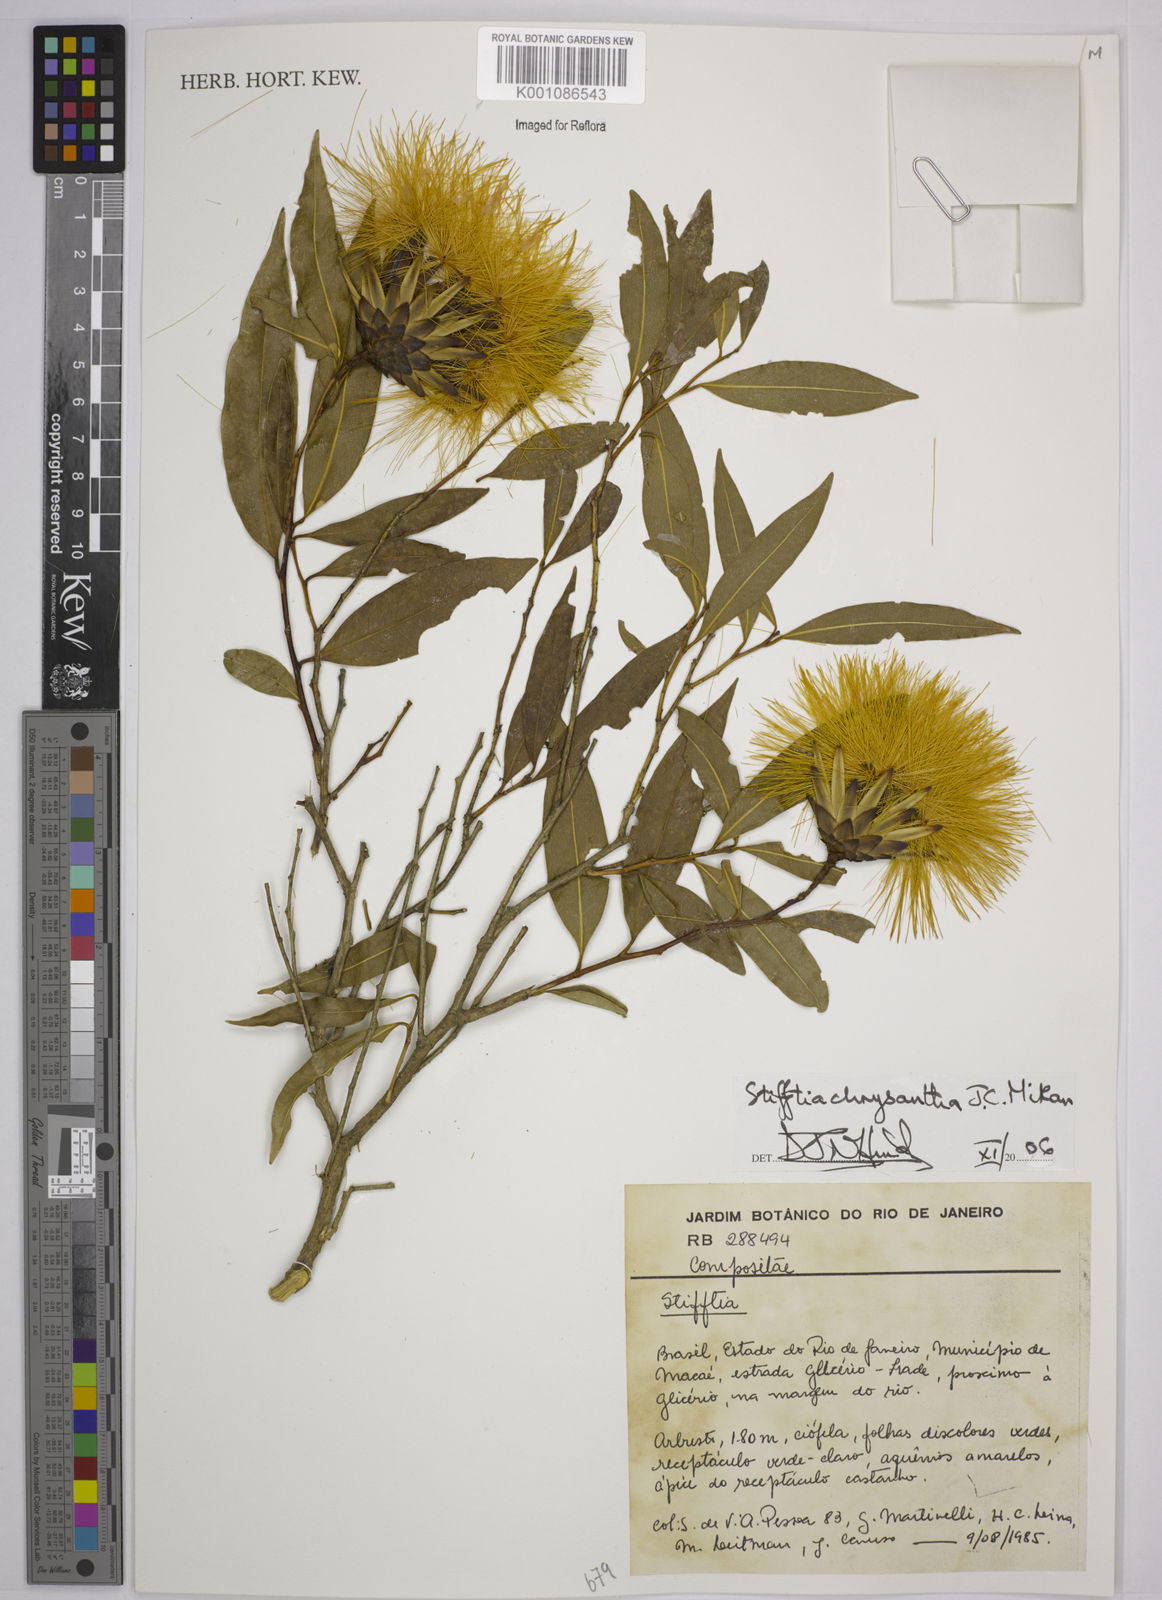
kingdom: Plantae
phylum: Tracheophyta
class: Magnoliopsida
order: Asterales
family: Asteraceae
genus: Stifftia
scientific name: Stifftia chrysantha
